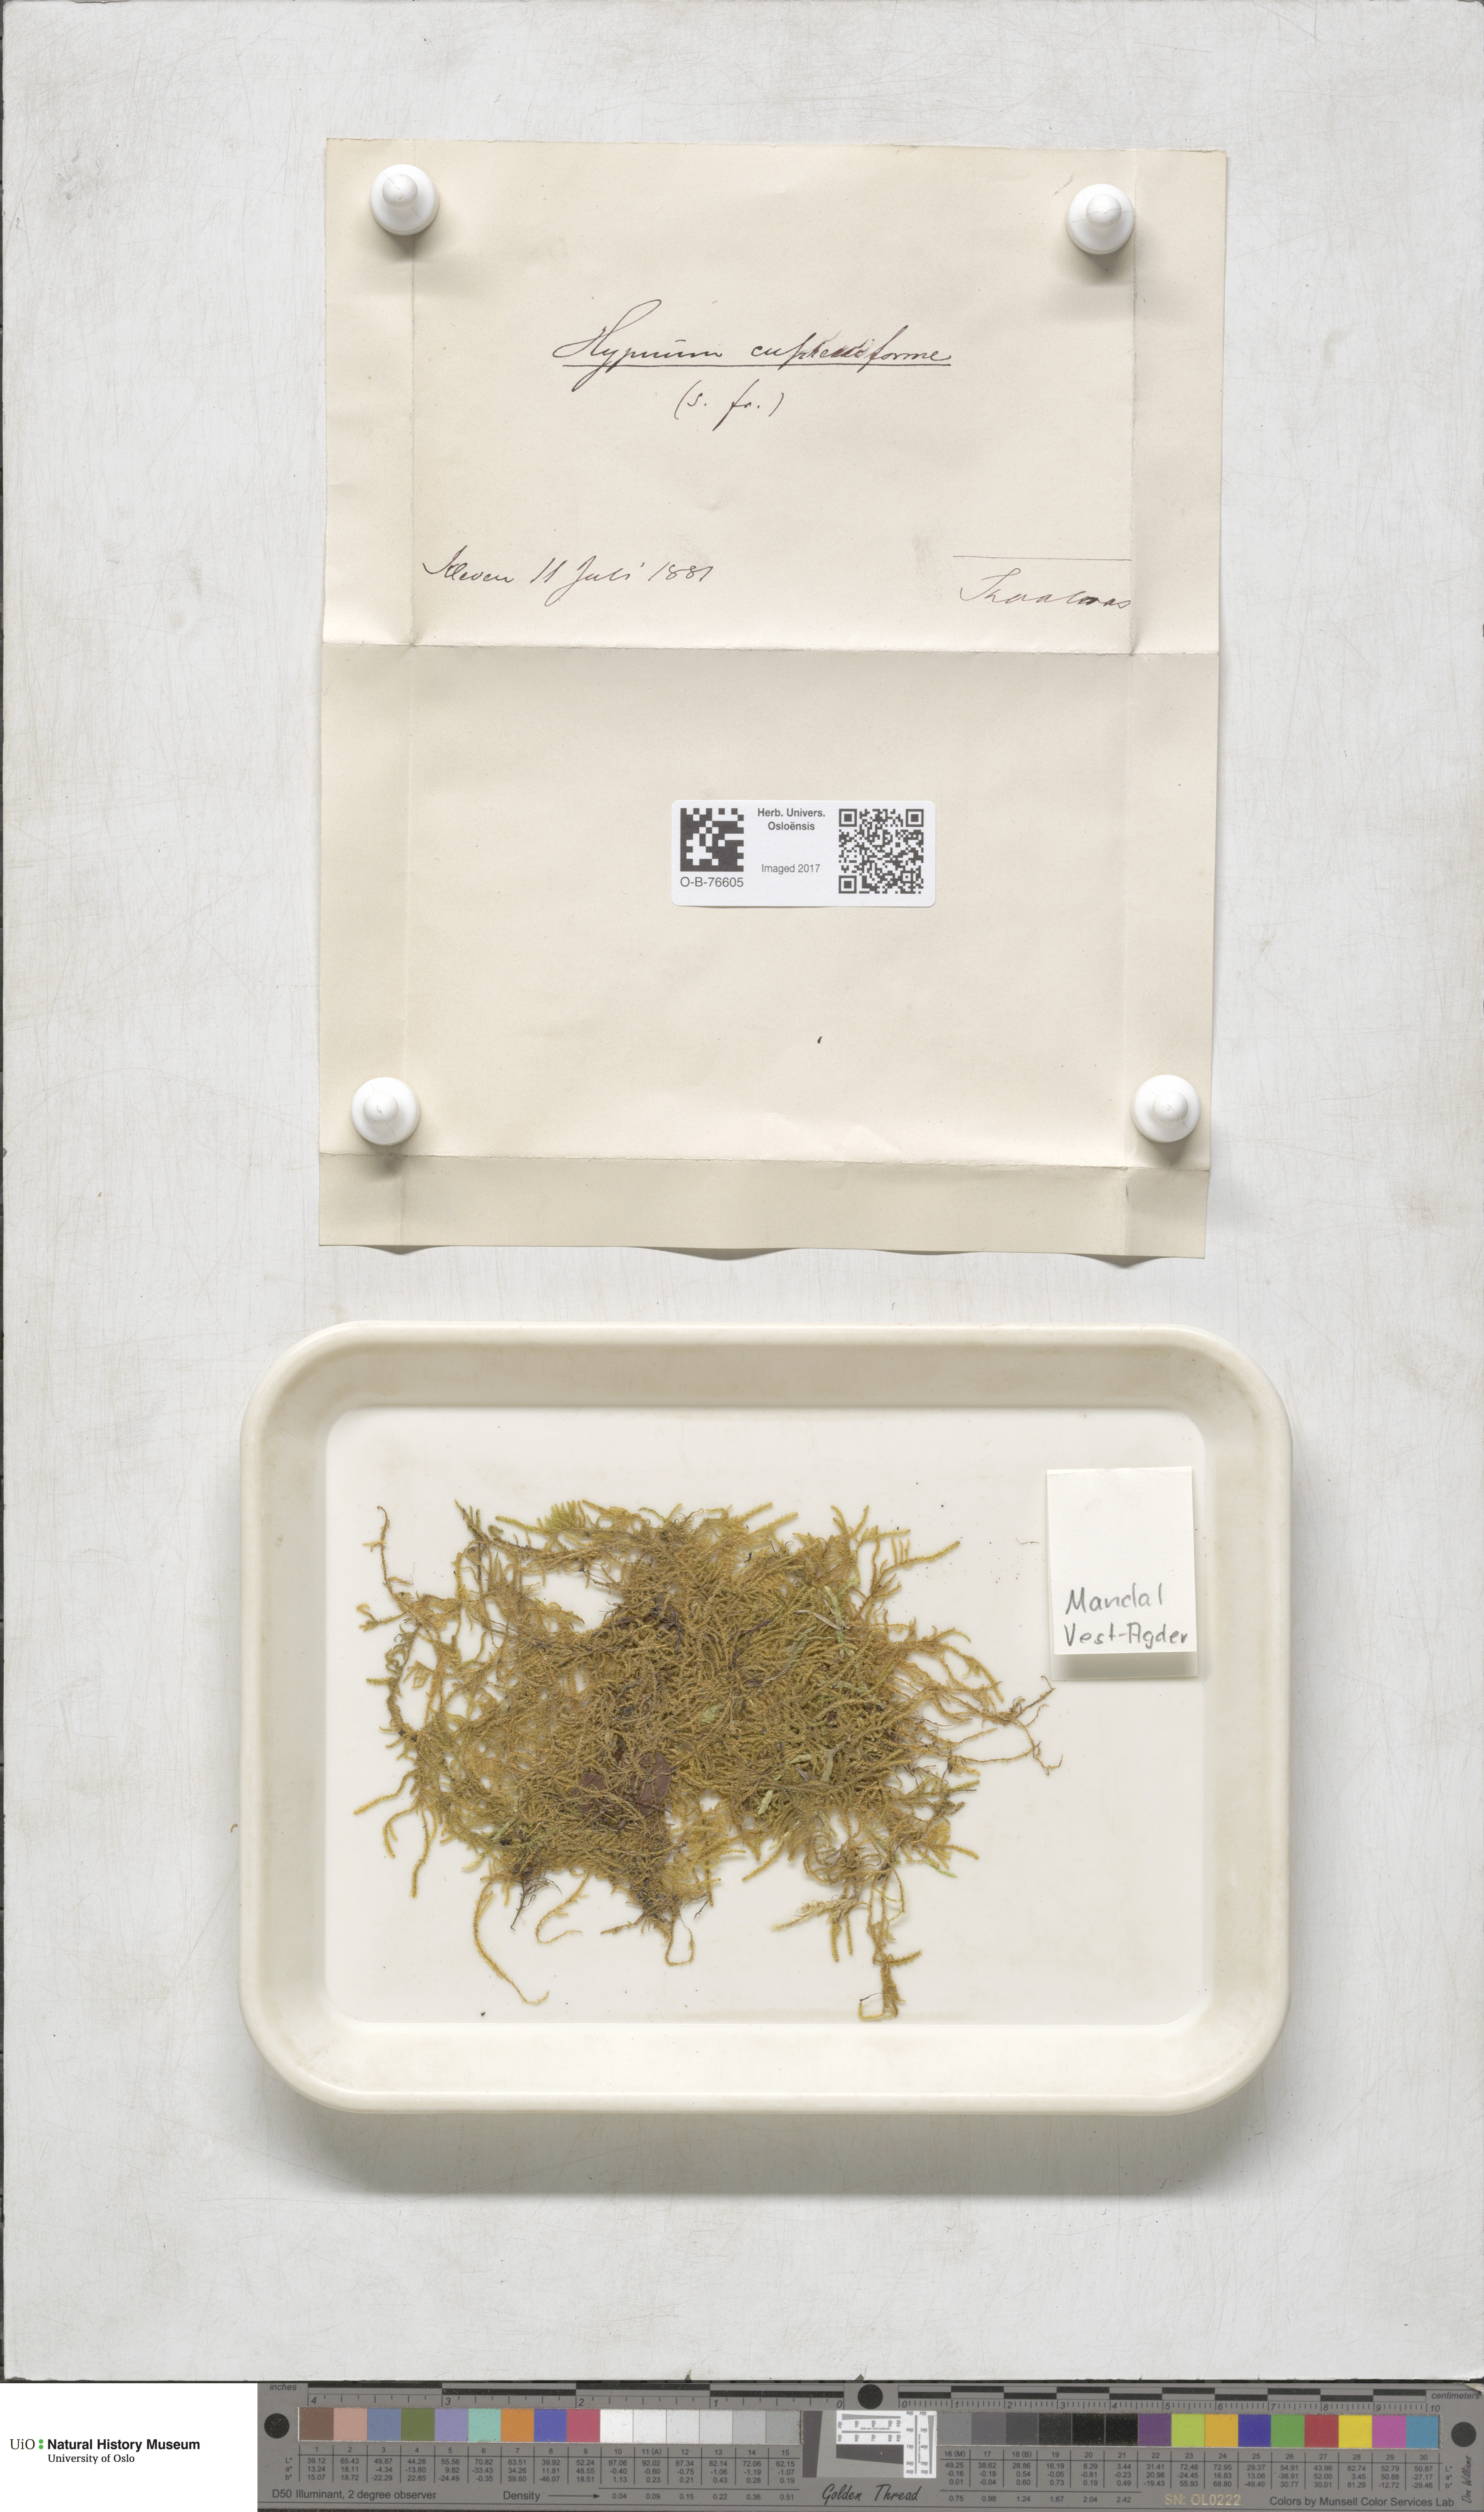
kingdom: Plantae
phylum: Bryophyta
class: Bryopsida
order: Hypnales
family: Hypnaceae
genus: Hypnum
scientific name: Hypnum cupressiforme
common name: Cypress-leaved plait-moss
